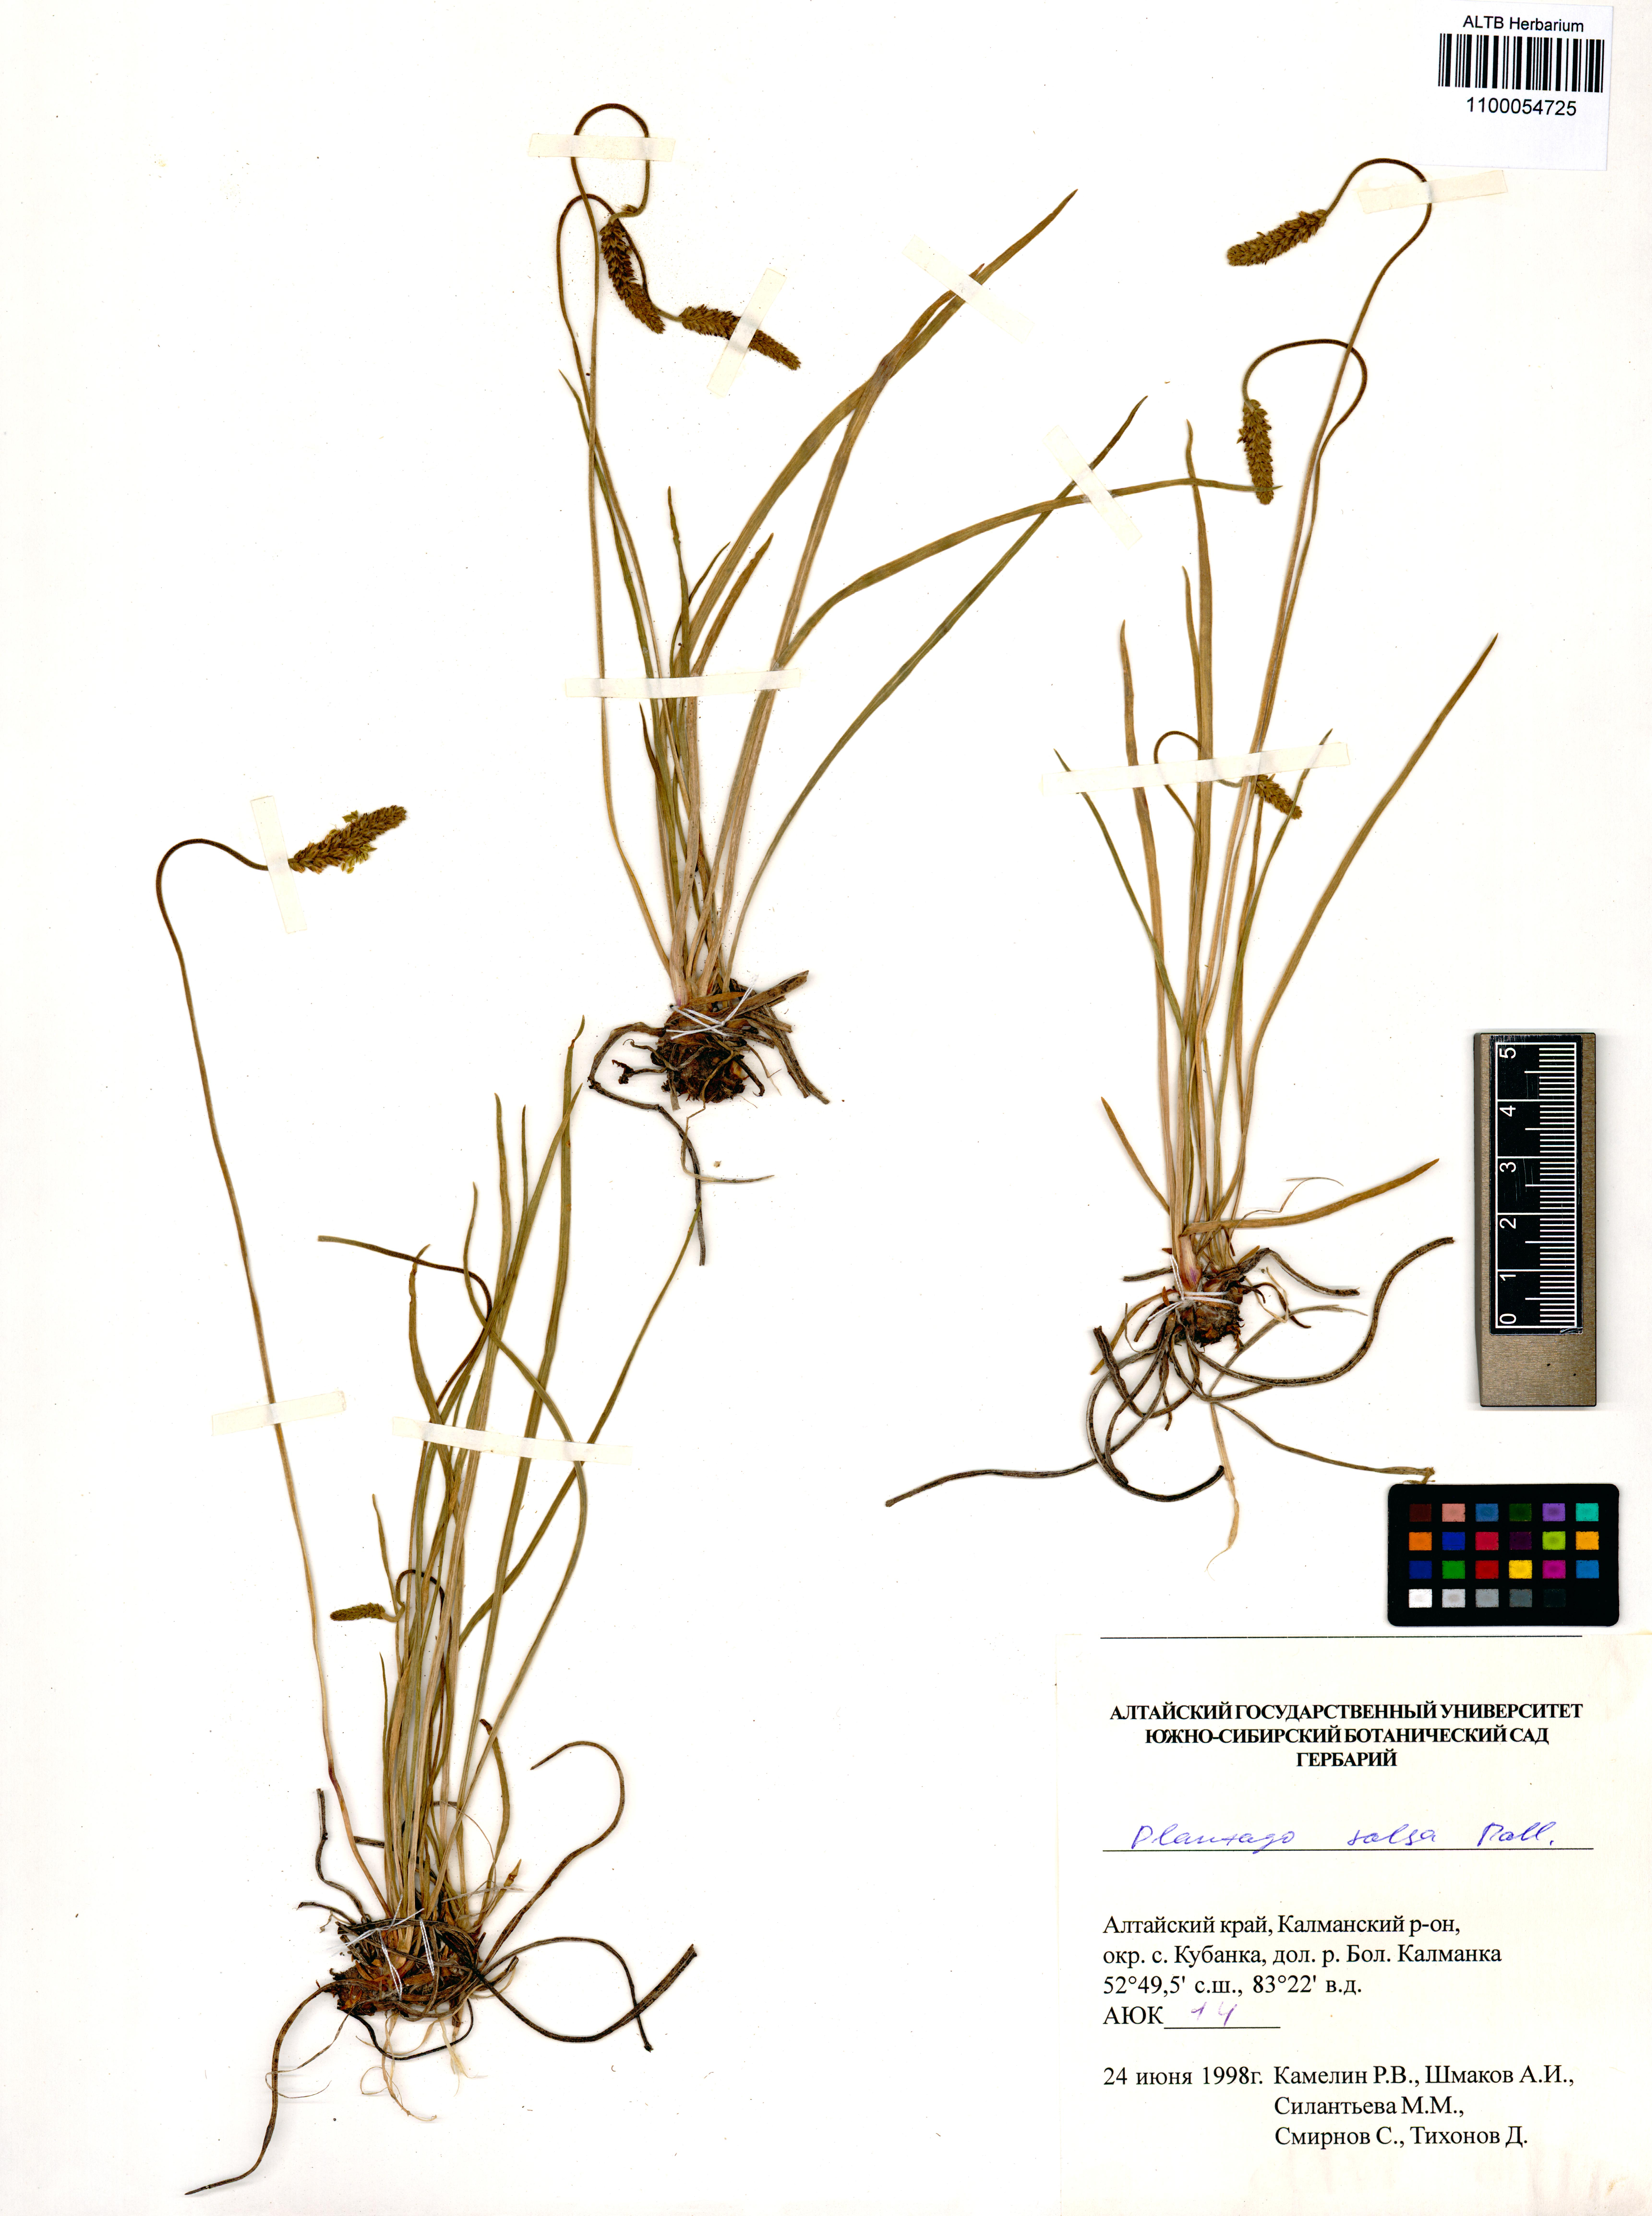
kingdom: Plantae
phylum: Tracheophyta
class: Magnoliopsida
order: Lamiales
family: Plantaginaceae
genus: Plantago
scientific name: Plantago salsa
